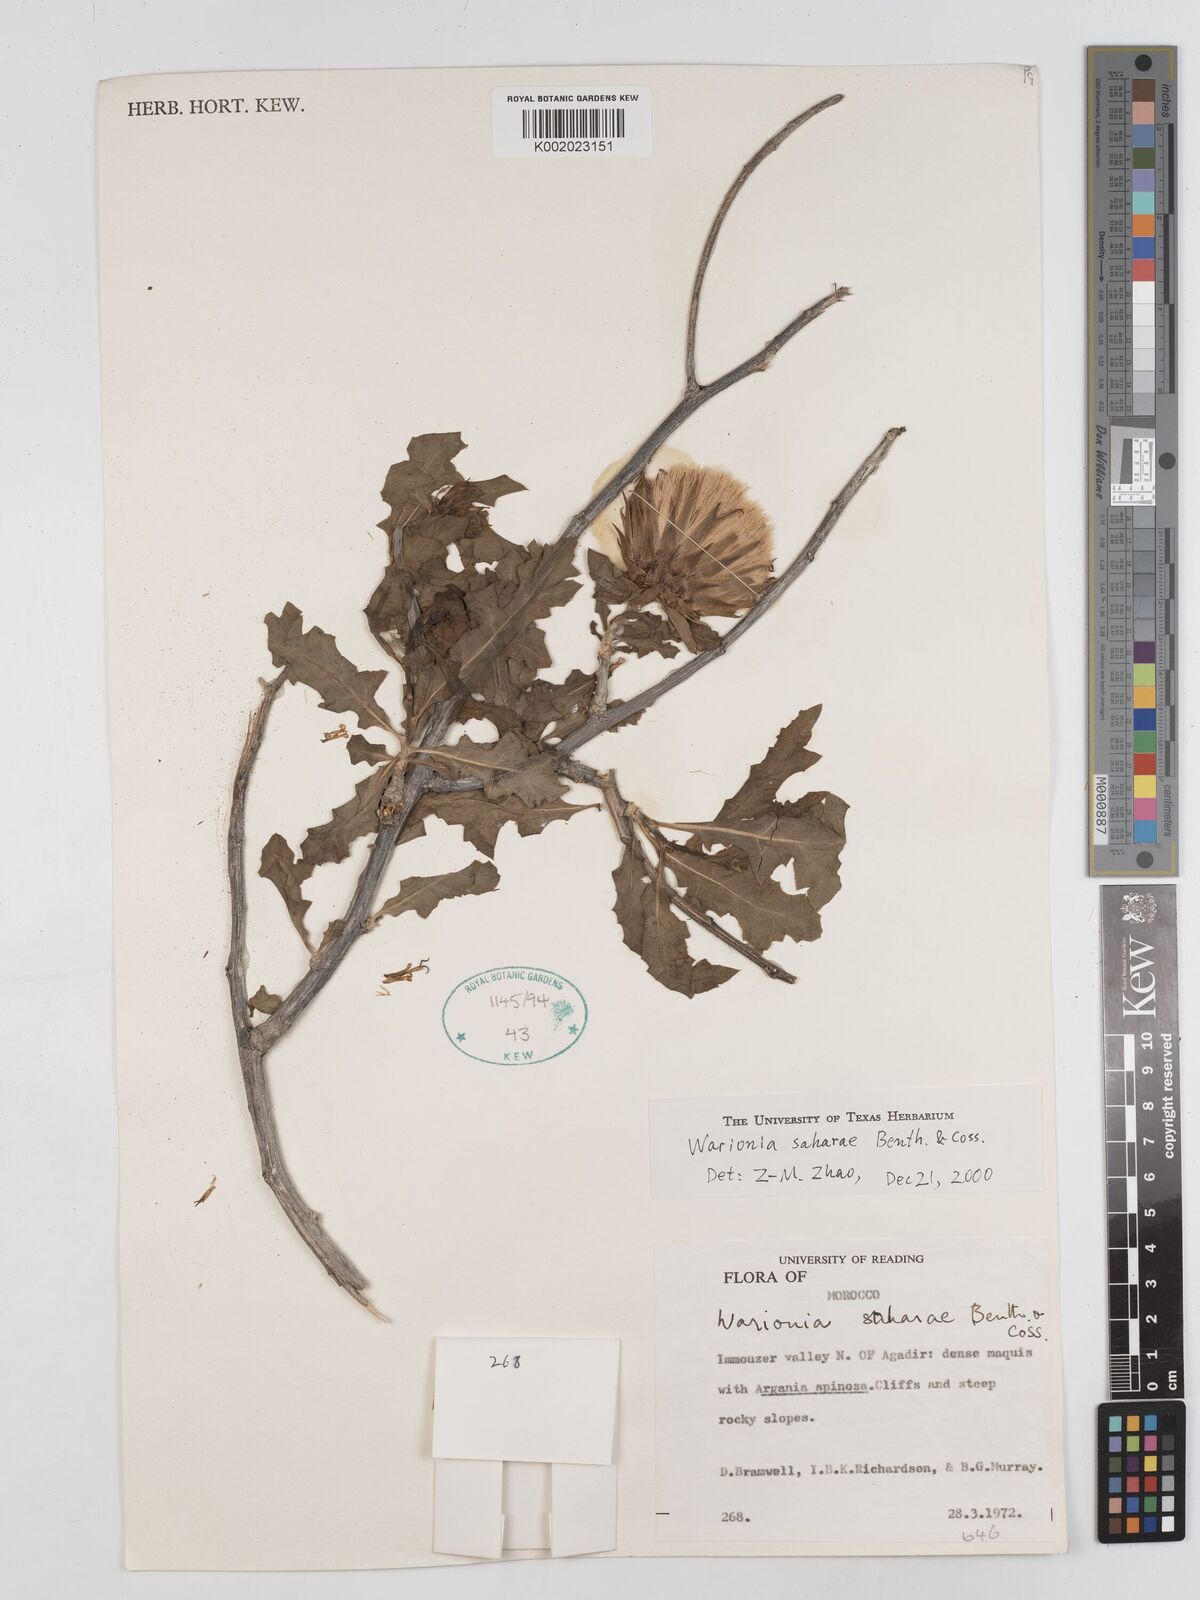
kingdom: Plantae
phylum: Tracheophyta
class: Magnoliopsida
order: Asterales
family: Asteraceae
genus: Warionia
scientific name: Warionia saharae
